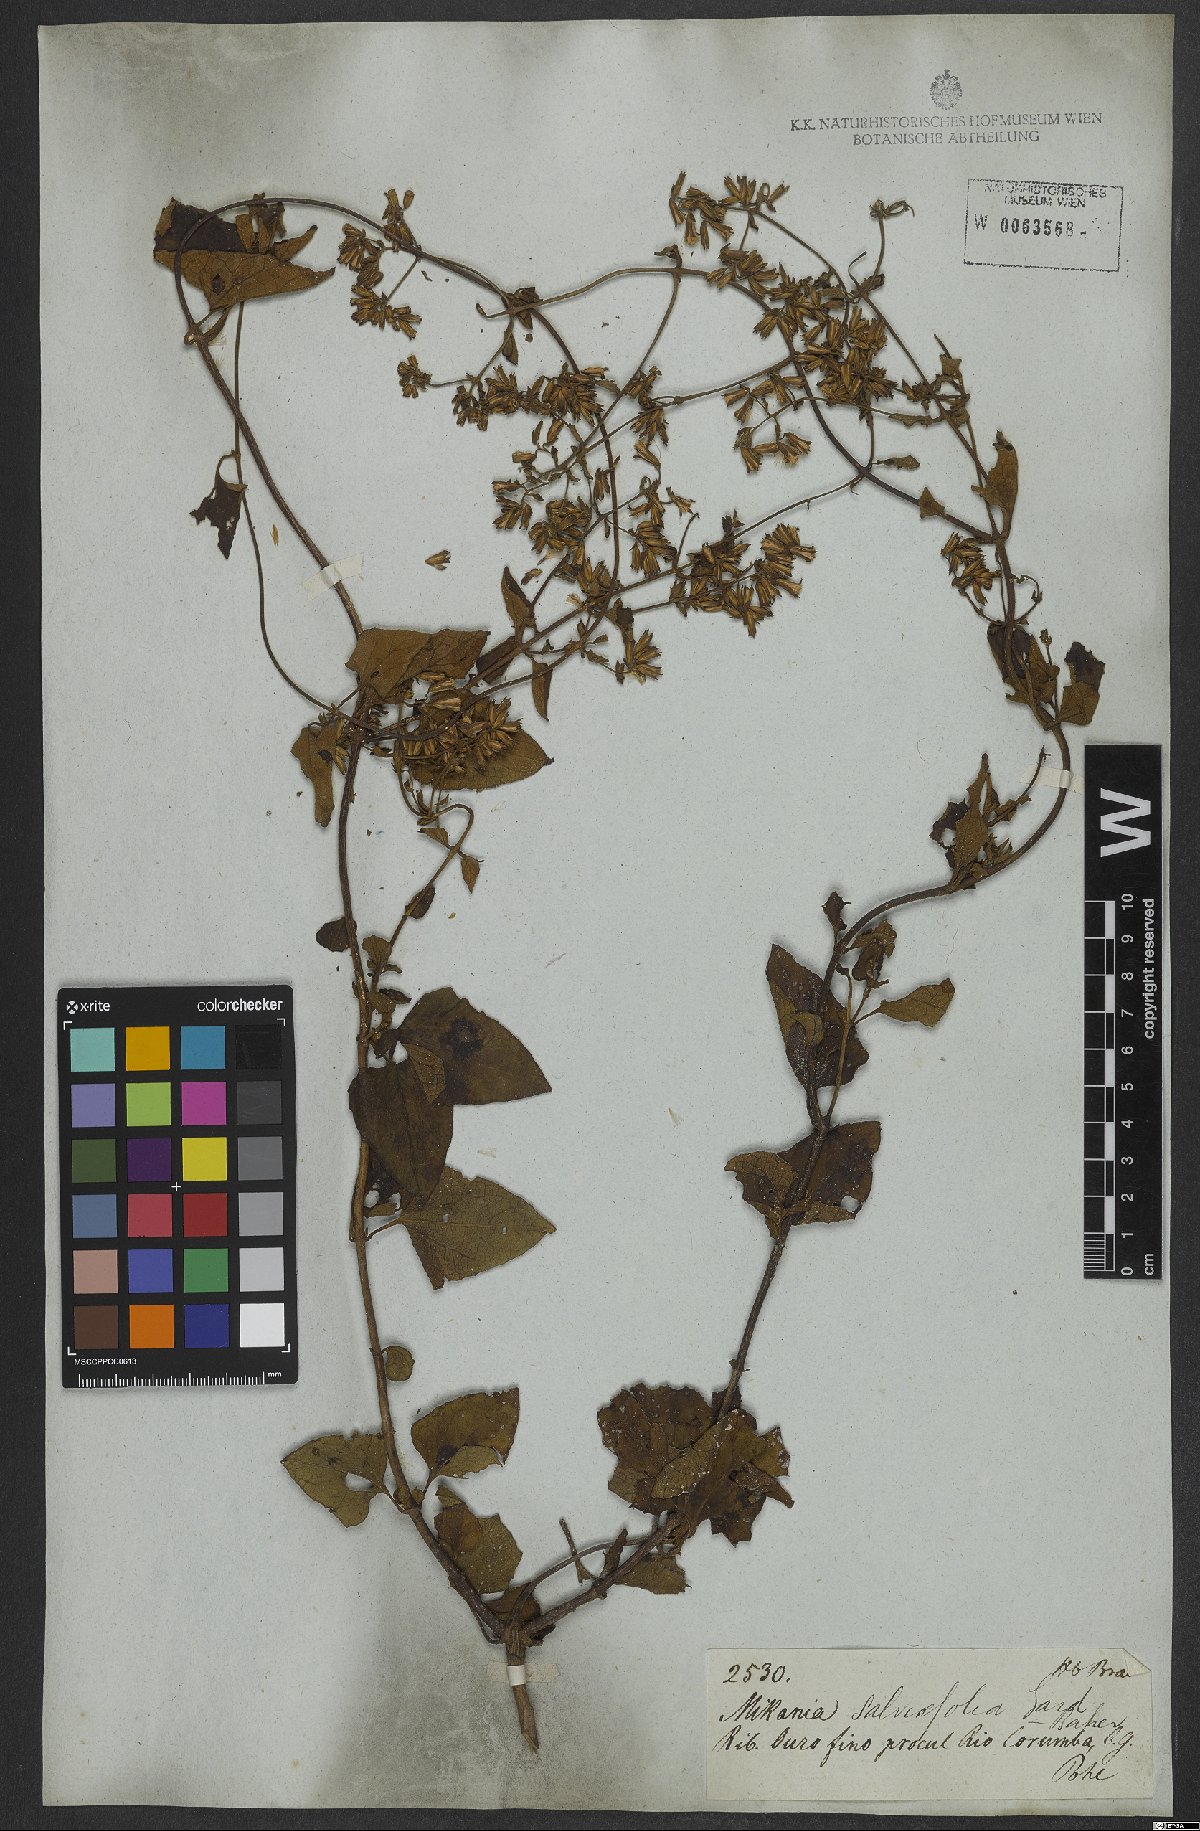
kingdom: Plantae
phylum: Tracheophyta
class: Magnoliopsida
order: Asterales
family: Asteraceae
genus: Mikania
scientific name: Mikania salviifolia
